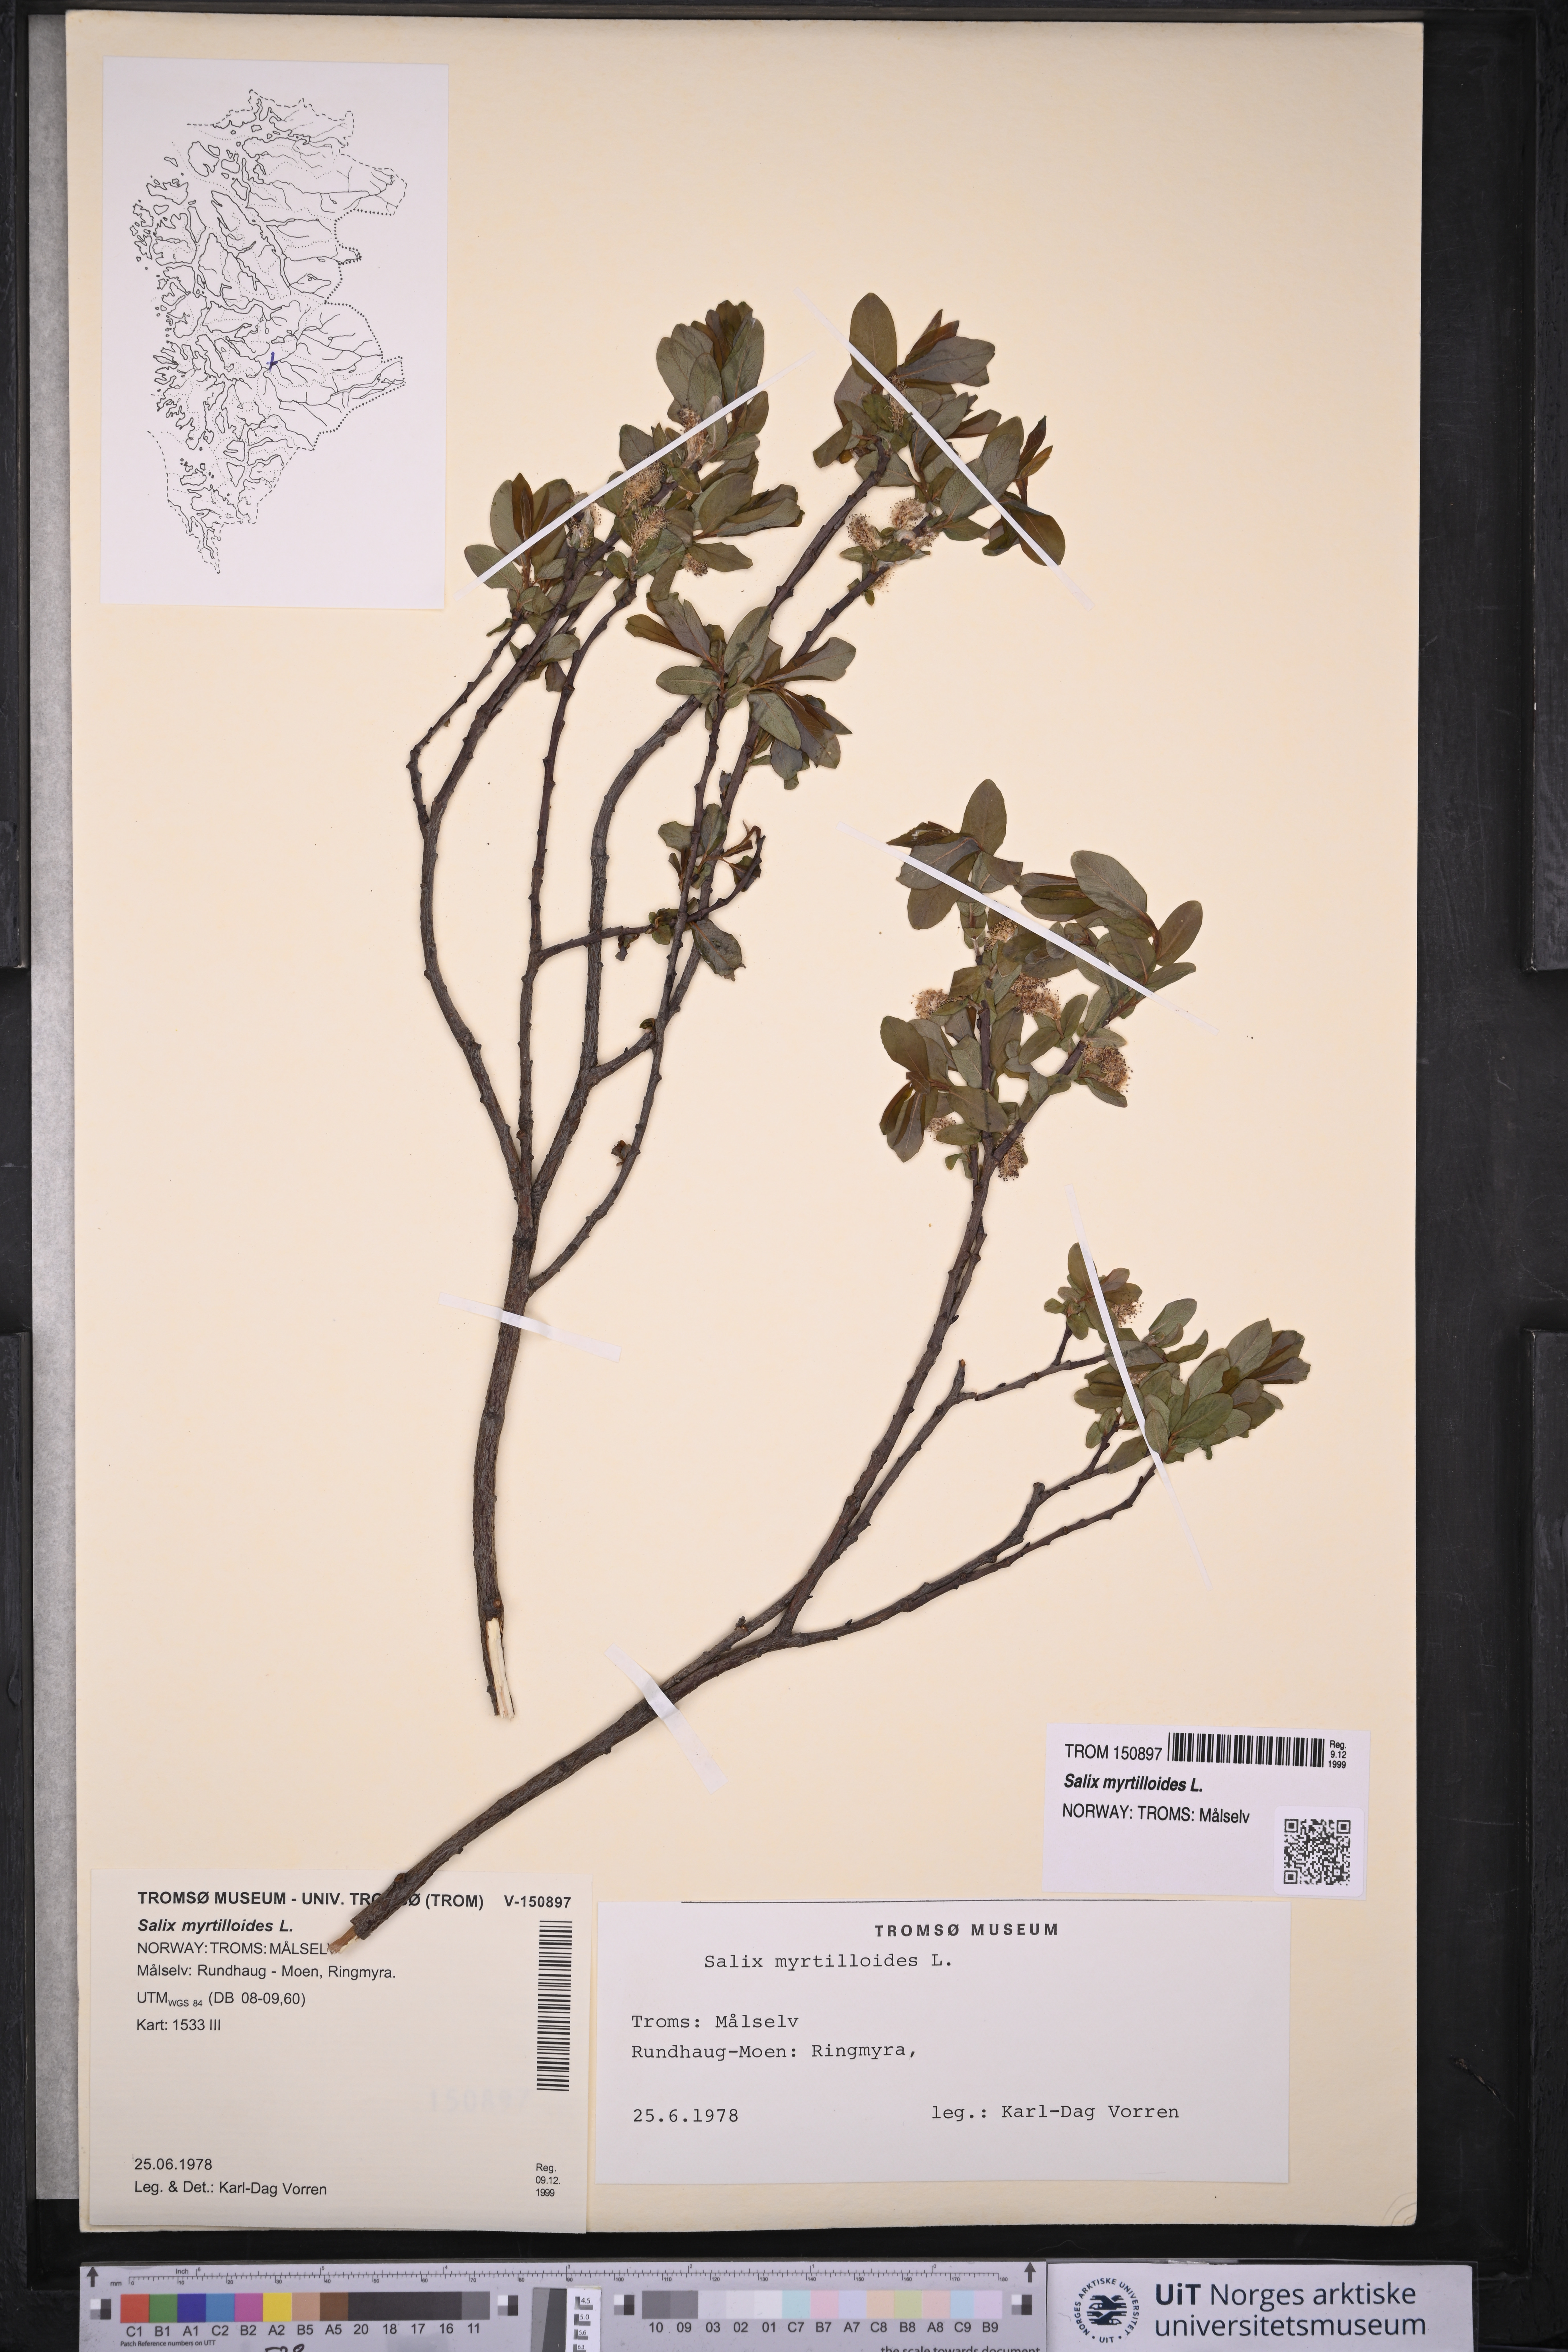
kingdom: Plantae
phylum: Tracheophyta
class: Magnoliopsida
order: Malpighiales
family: Salicaceae
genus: Salix
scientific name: Salix myrtilloides
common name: Myrtle-leaved willow
